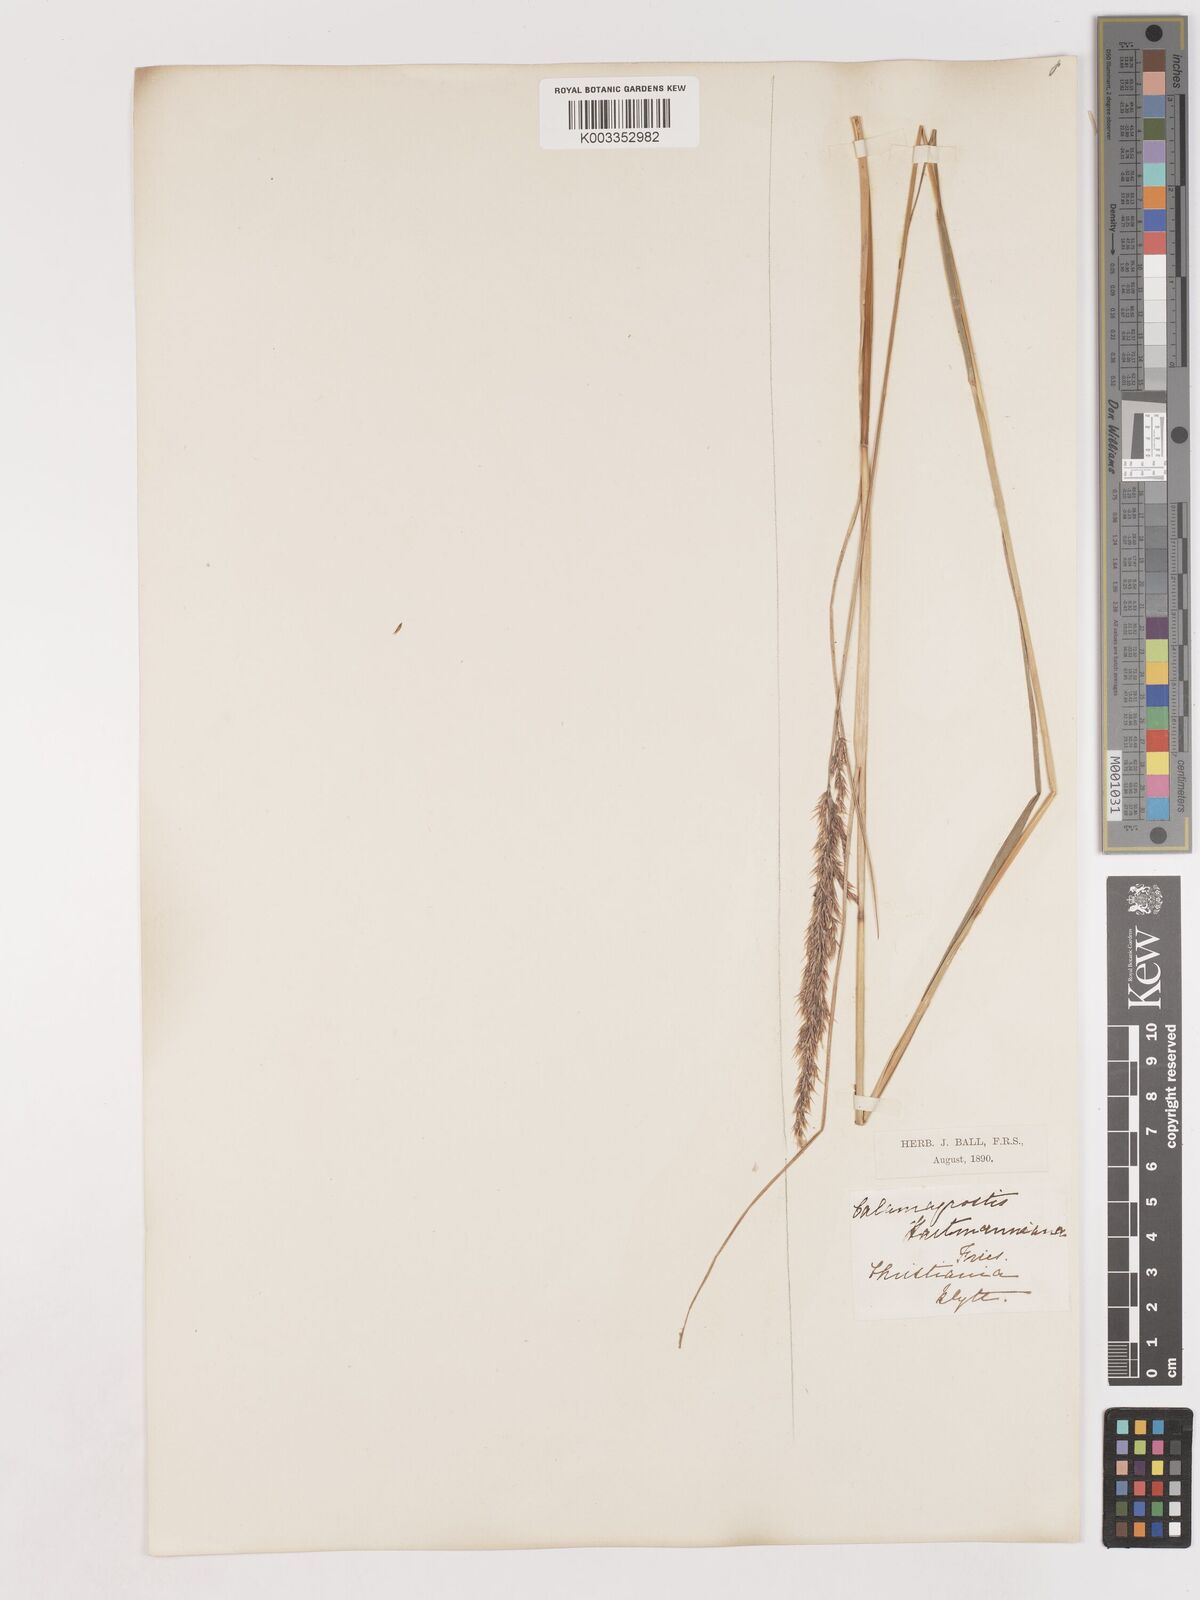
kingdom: Plantae
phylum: Tracheophyta
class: Liliopsida
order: Poales
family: Poaceae
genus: Calamagrostis
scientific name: Calamagrostis canescens
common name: Purple small-reed
